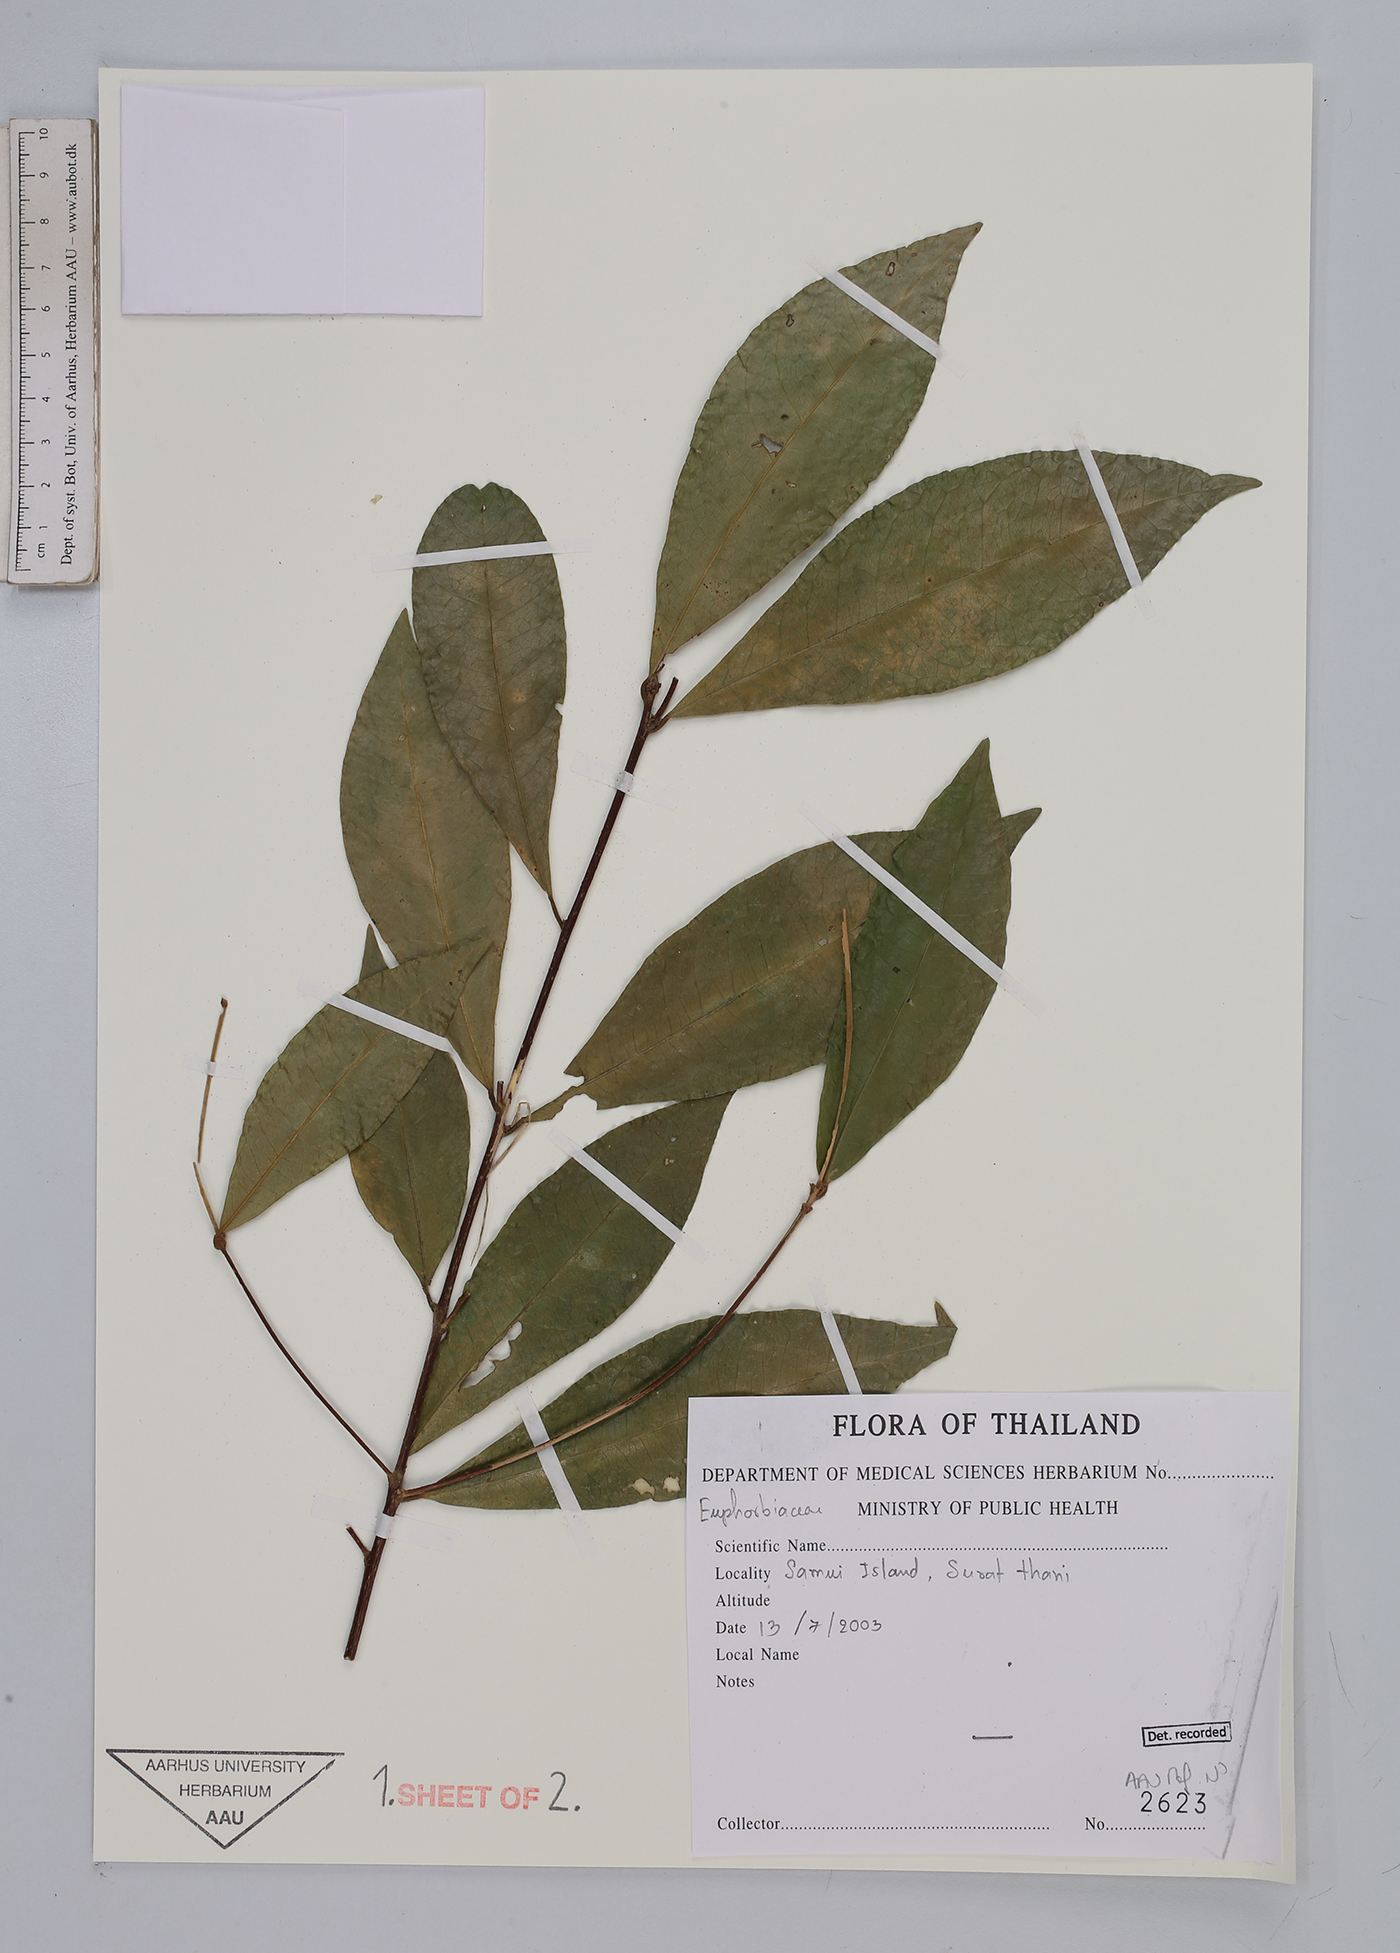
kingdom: Plantae
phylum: Tracheophyta
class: Magnoliopsida
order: Malpighiales
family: Euphorbiaceae
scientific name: Euphorbiaceae
